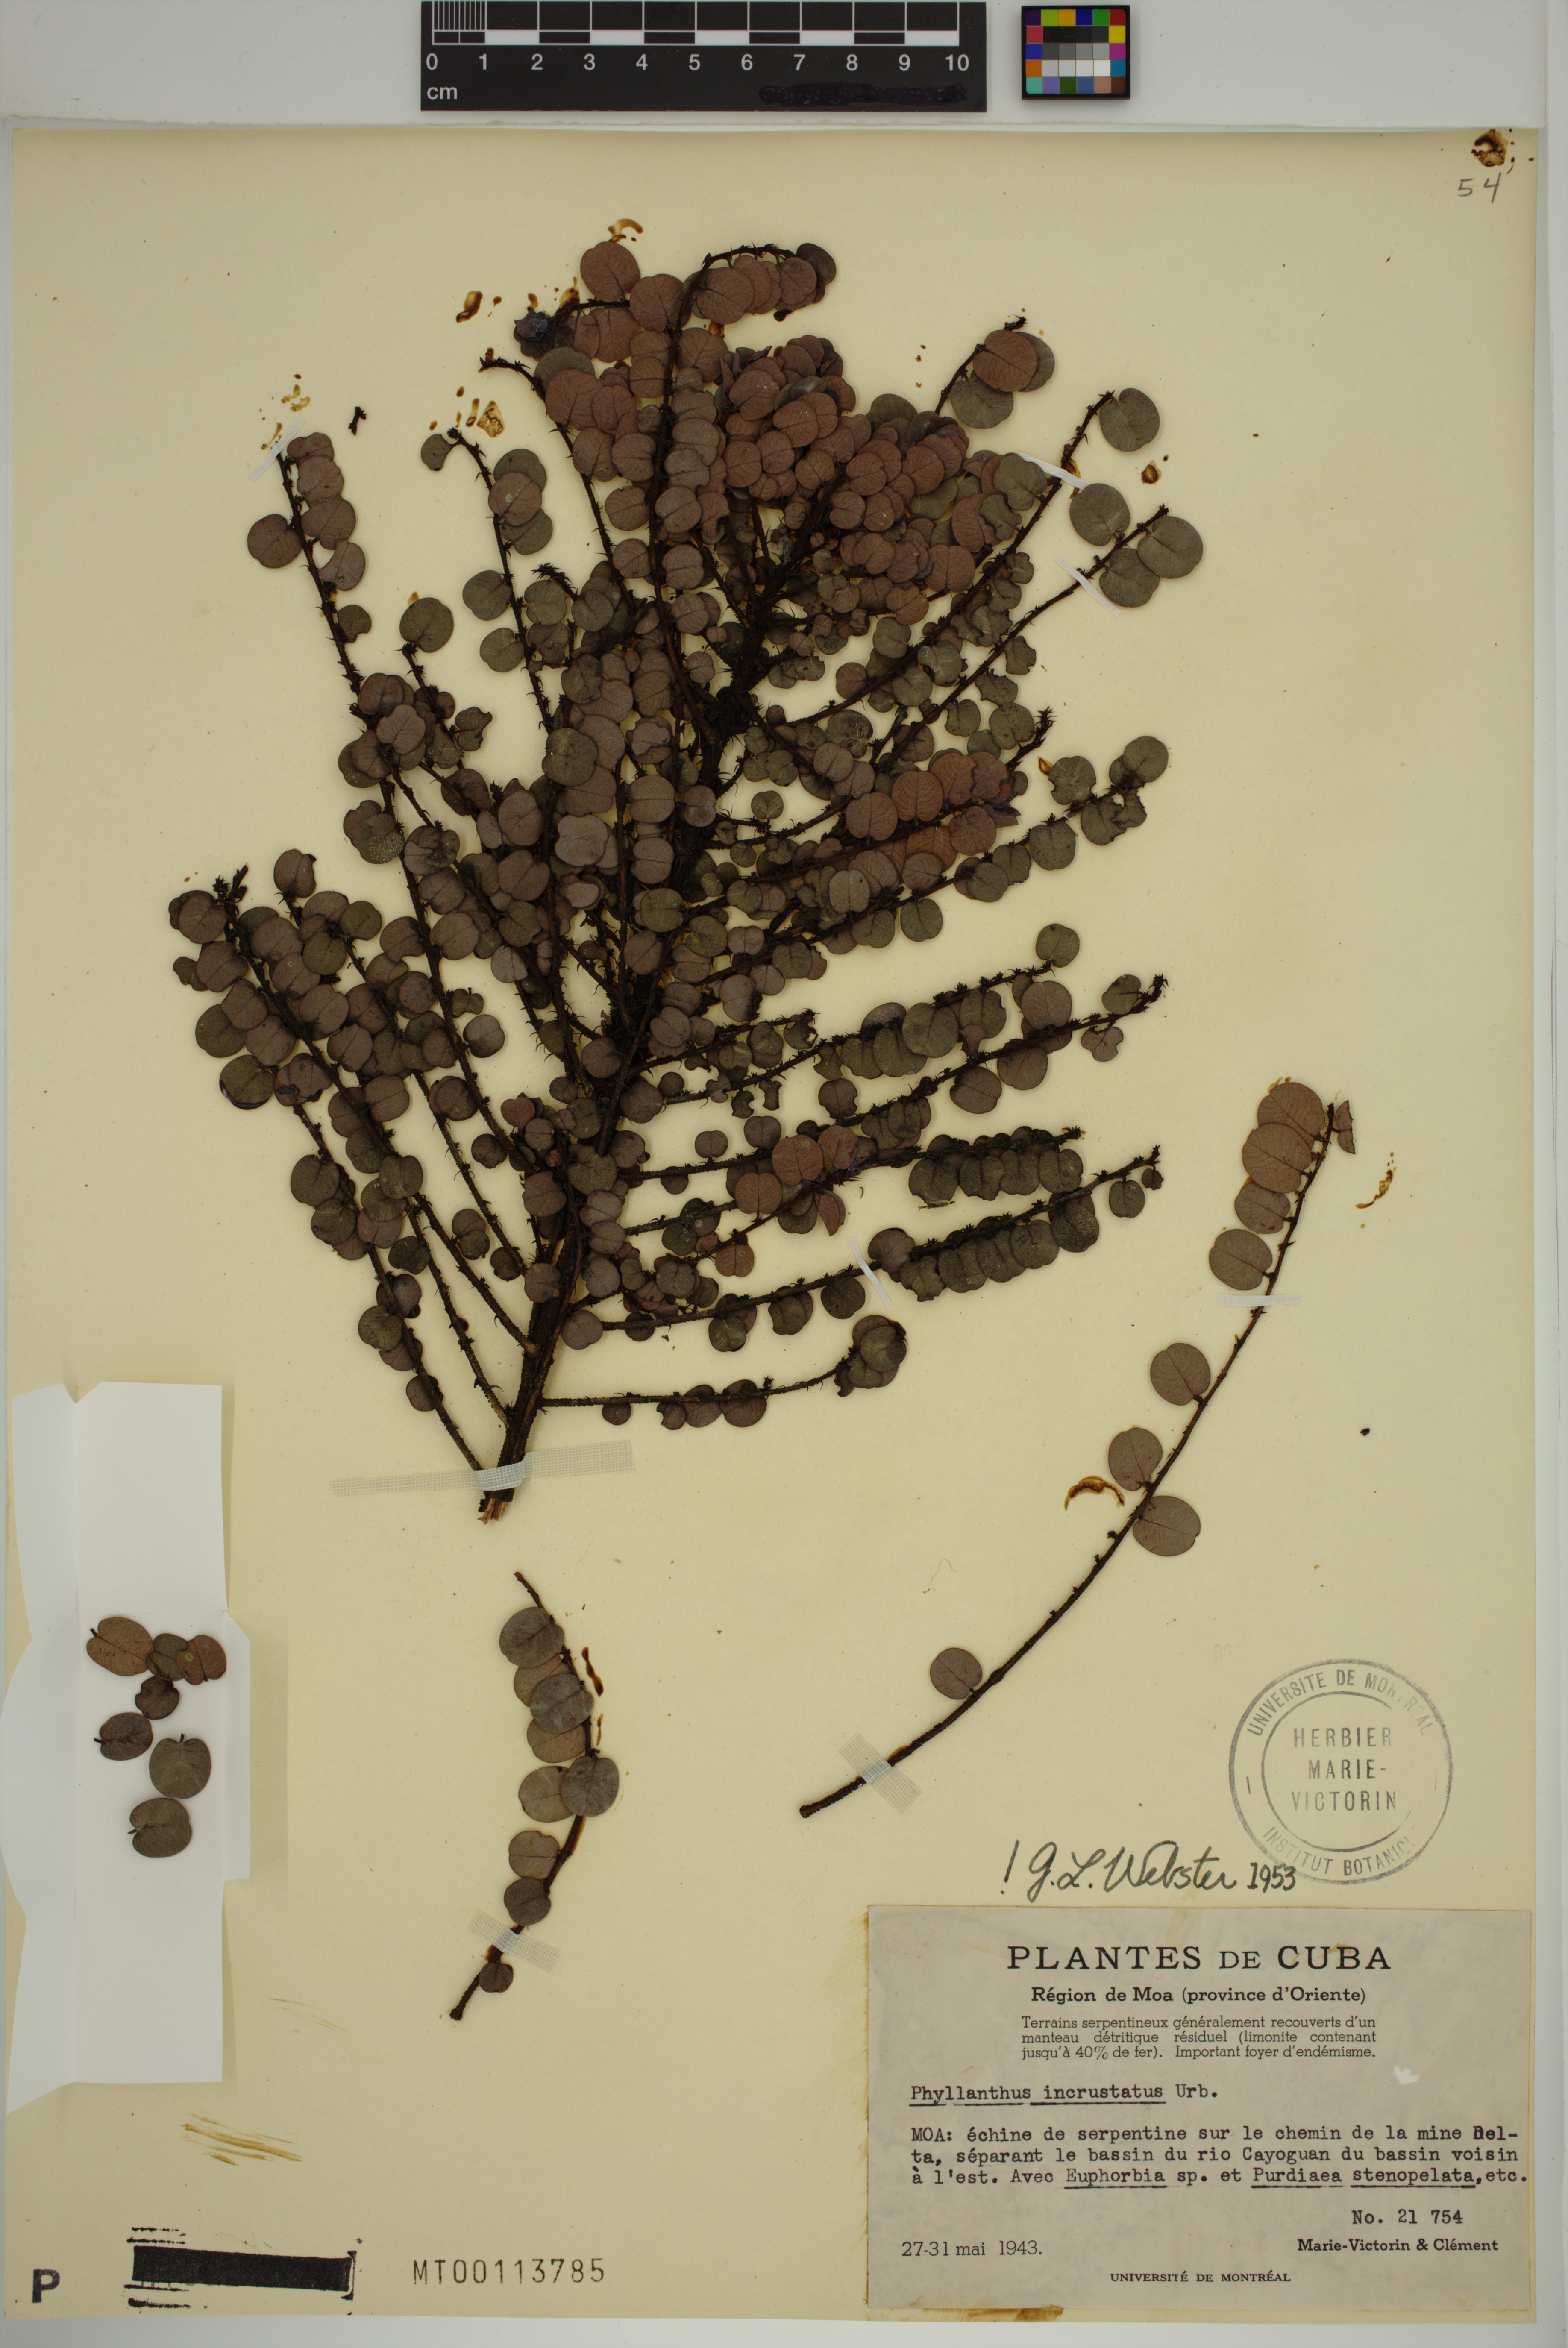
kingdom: Plantae
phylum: Tracheophyta
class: Magnoliopsida
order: Malpighiales
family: Phyllanthaceae
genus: Phyllanthus
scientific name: Phyllanthus incrustatus
